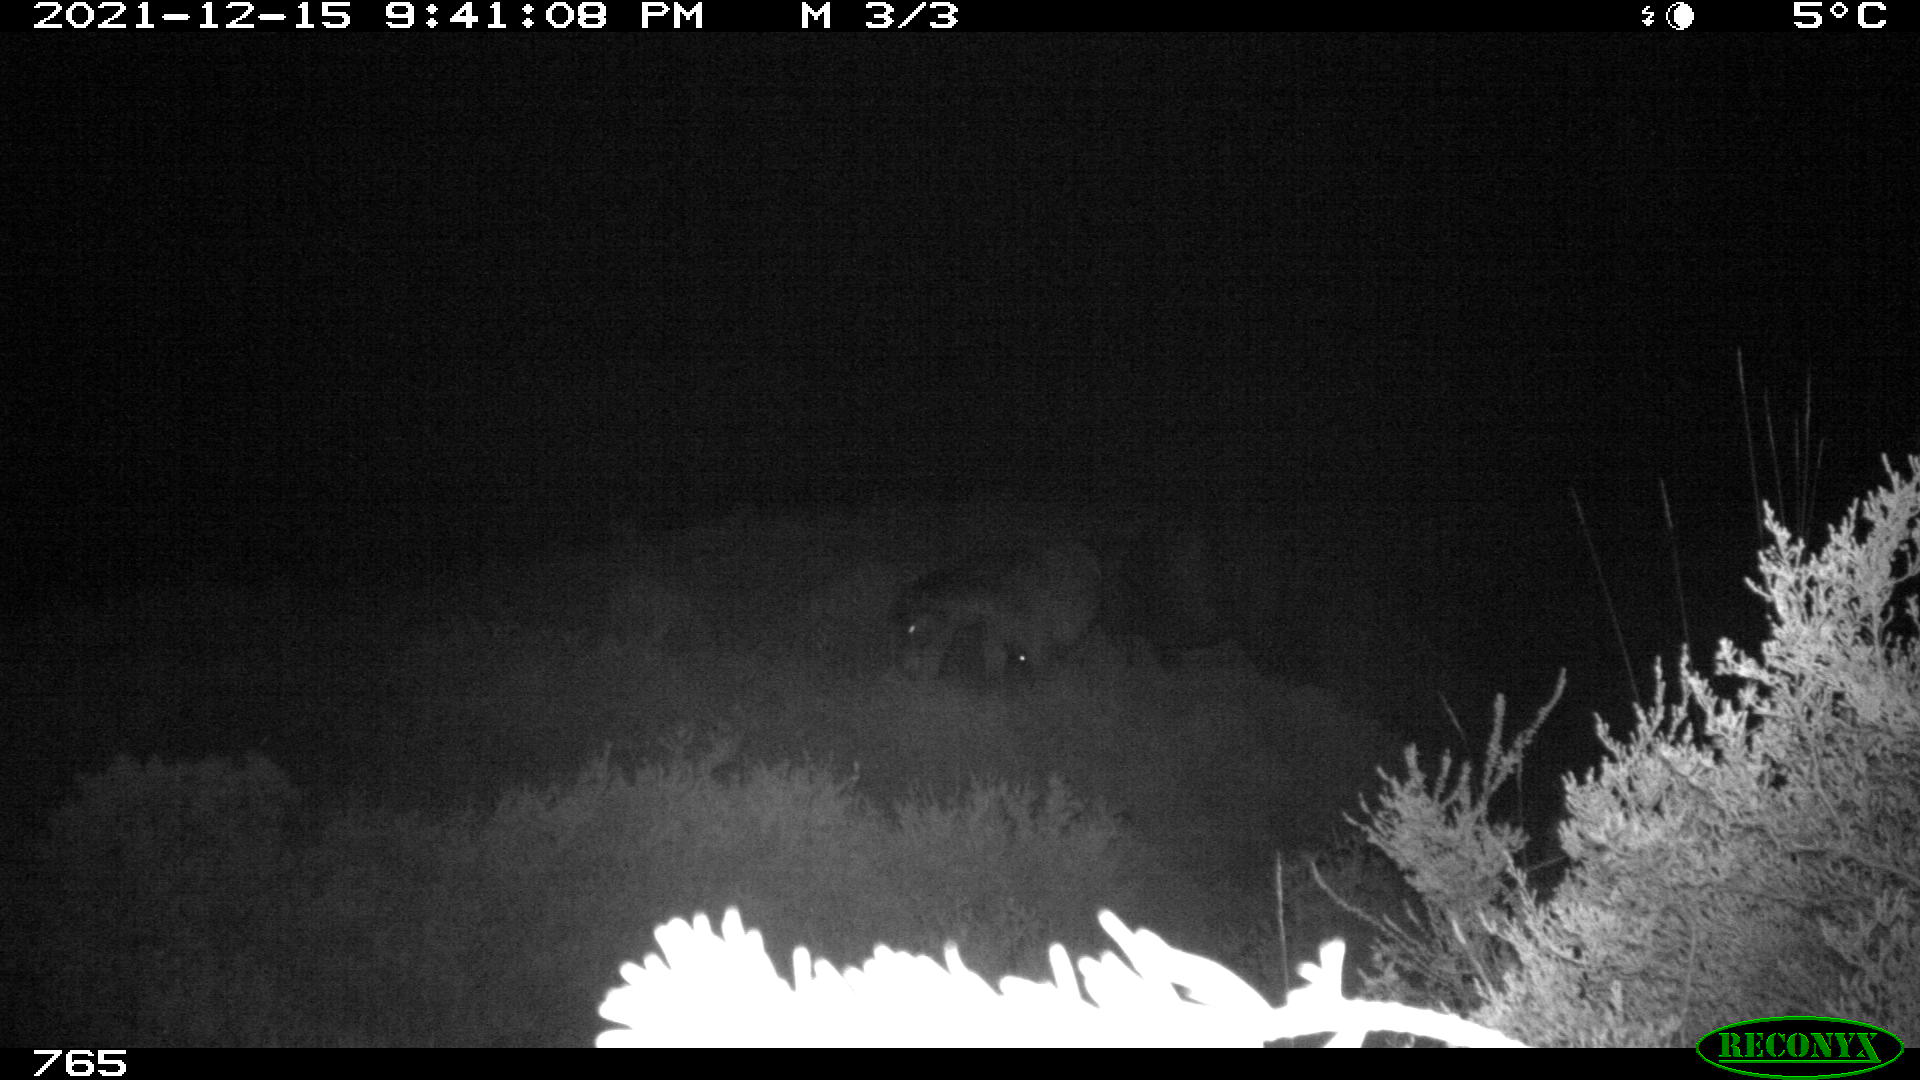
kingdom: Animalia
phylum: Chordata
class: Mammalia
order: Perissodactyla
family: Equidae
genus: Equus
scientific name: Equus caballus
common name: Horse
